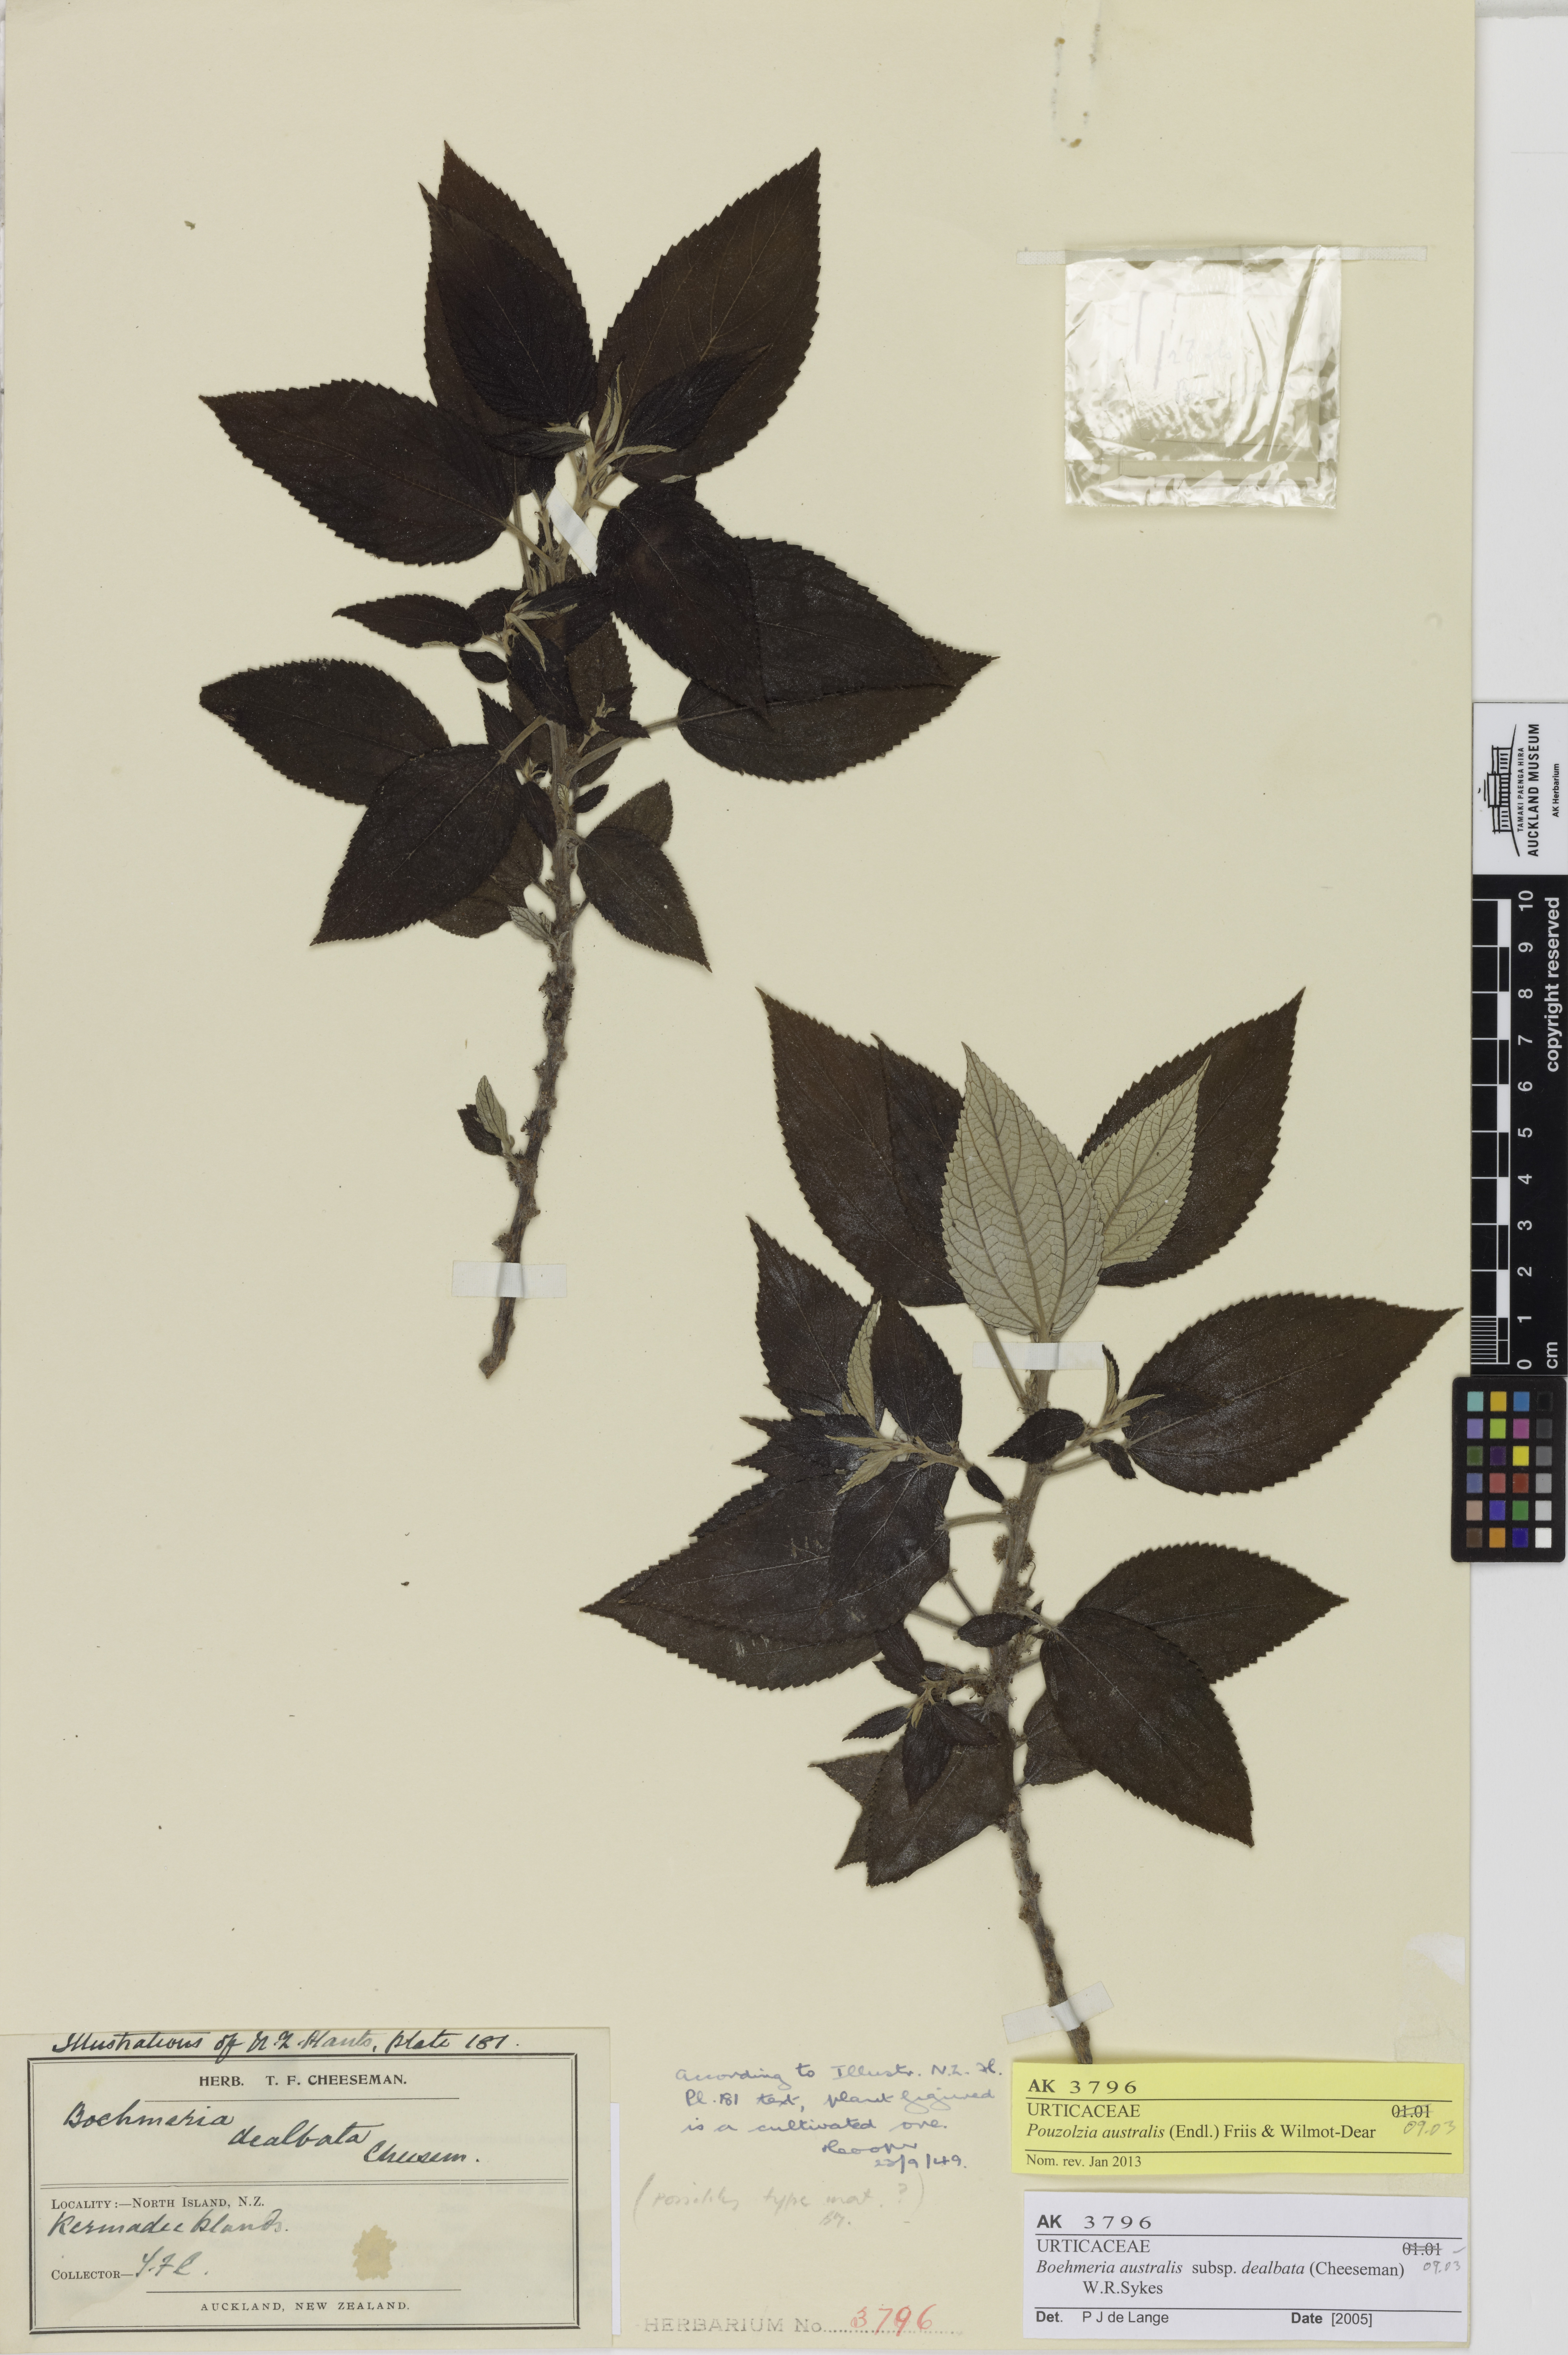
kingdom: Plantae
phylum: Tracheophyta
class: Magnoliopsida
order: Rosales
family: Urticaceae
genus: Pouzolzia
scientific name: Pouzolzia australis
